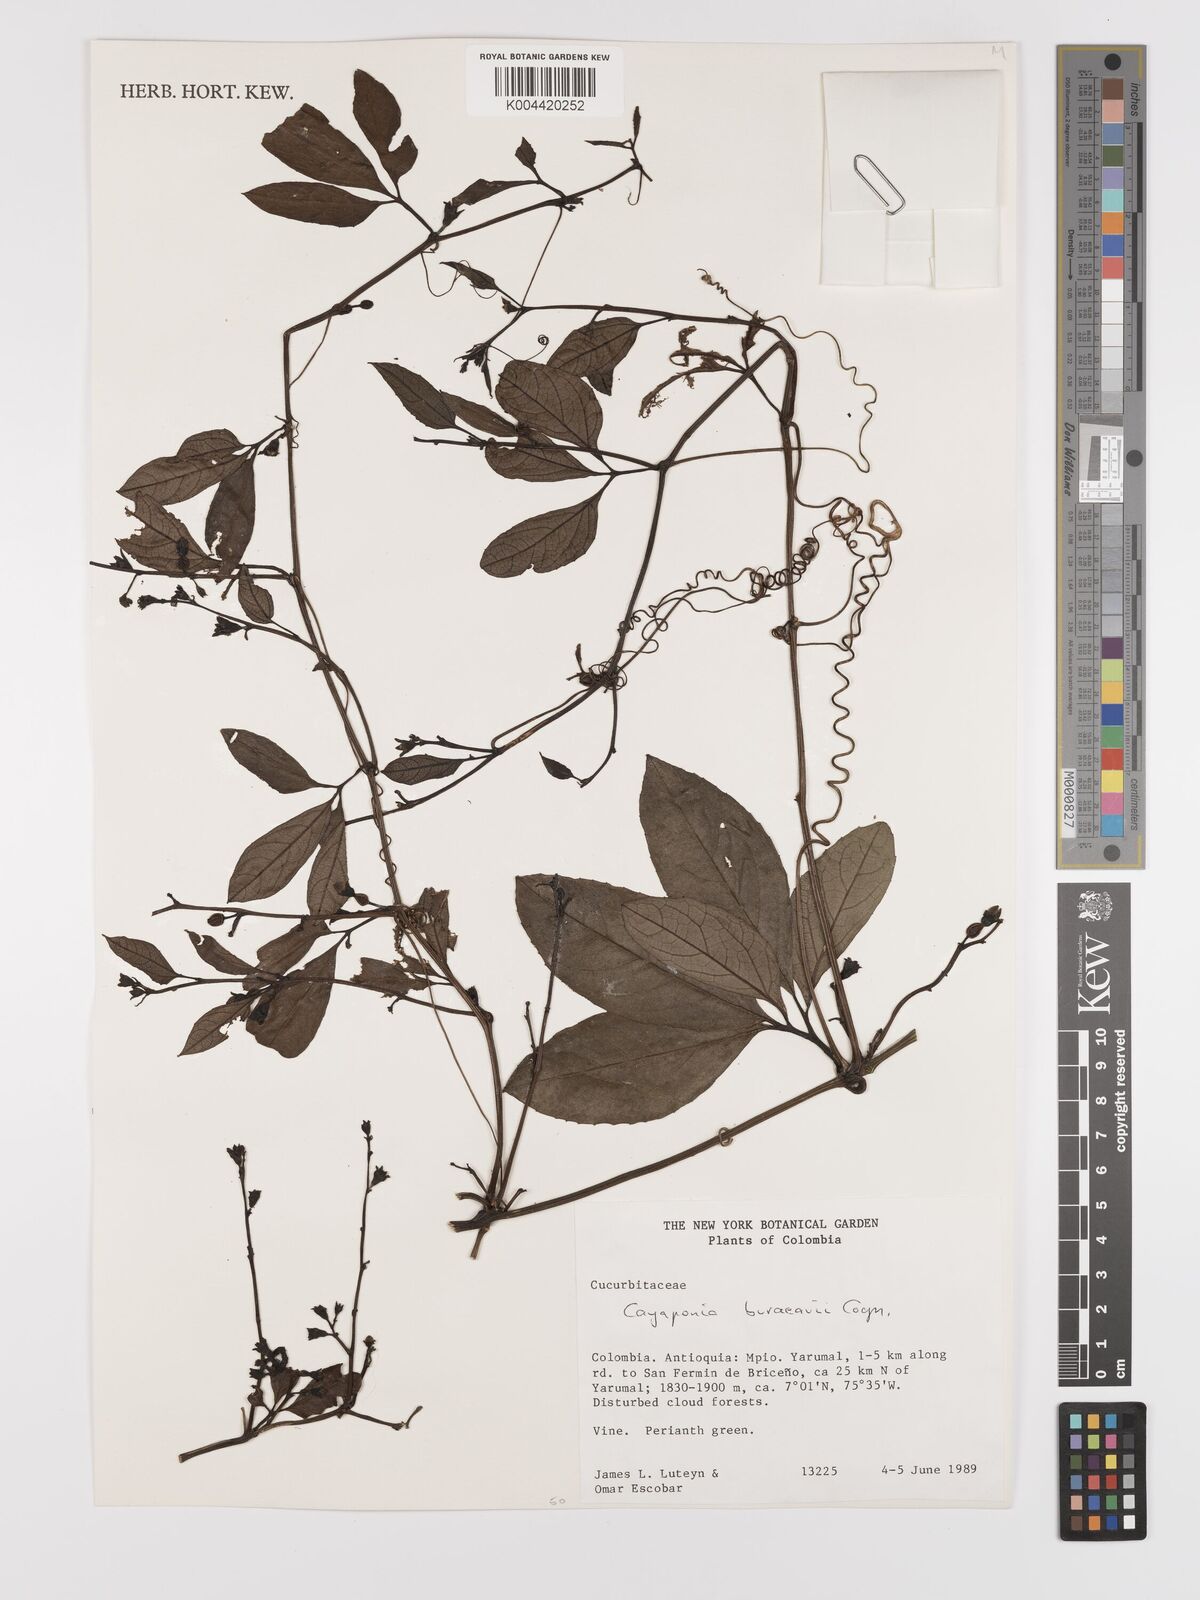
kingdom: Plantae
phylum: Tracheophyta
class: Magnoliopsida
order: Cucurbitales
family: Cucurbitaceae
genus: Cayaponia
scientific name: Cayaponia buraeavii
